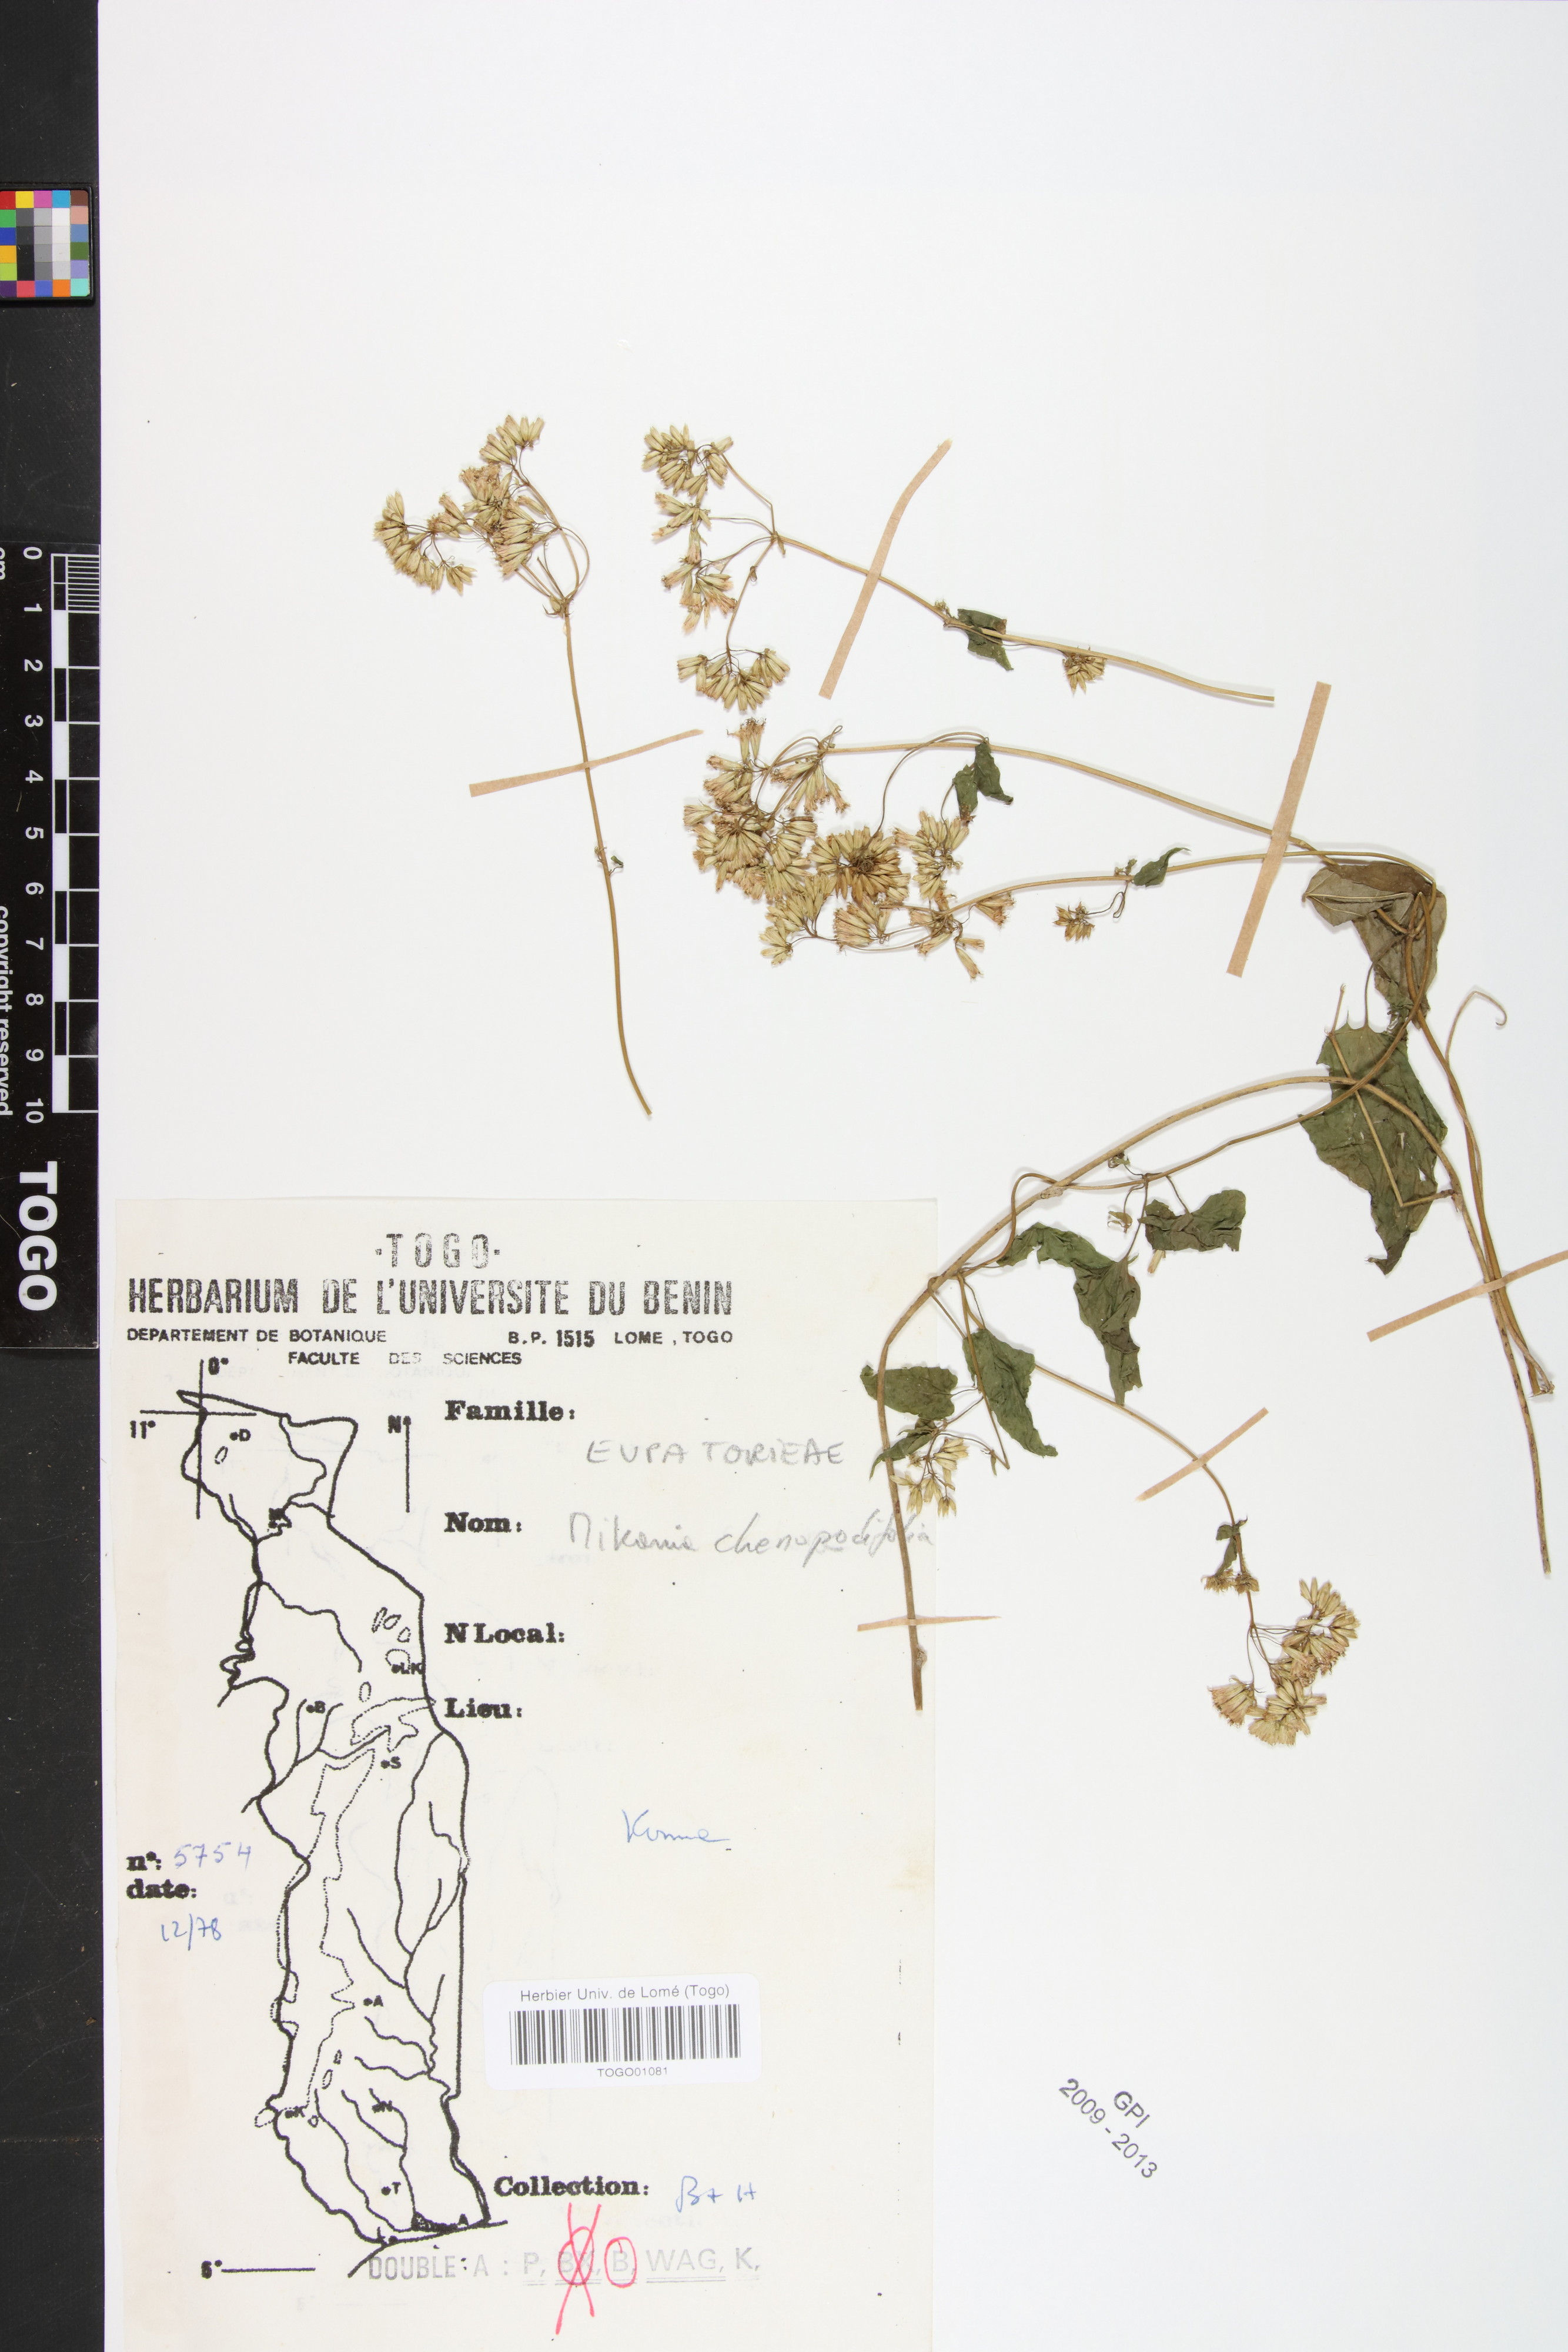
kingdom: Plantae
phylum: Tracheophyta
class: Magnoliopsida
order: Asterales
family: Asteraceae
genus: Mikania
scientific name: Mikania chenopodifolia
